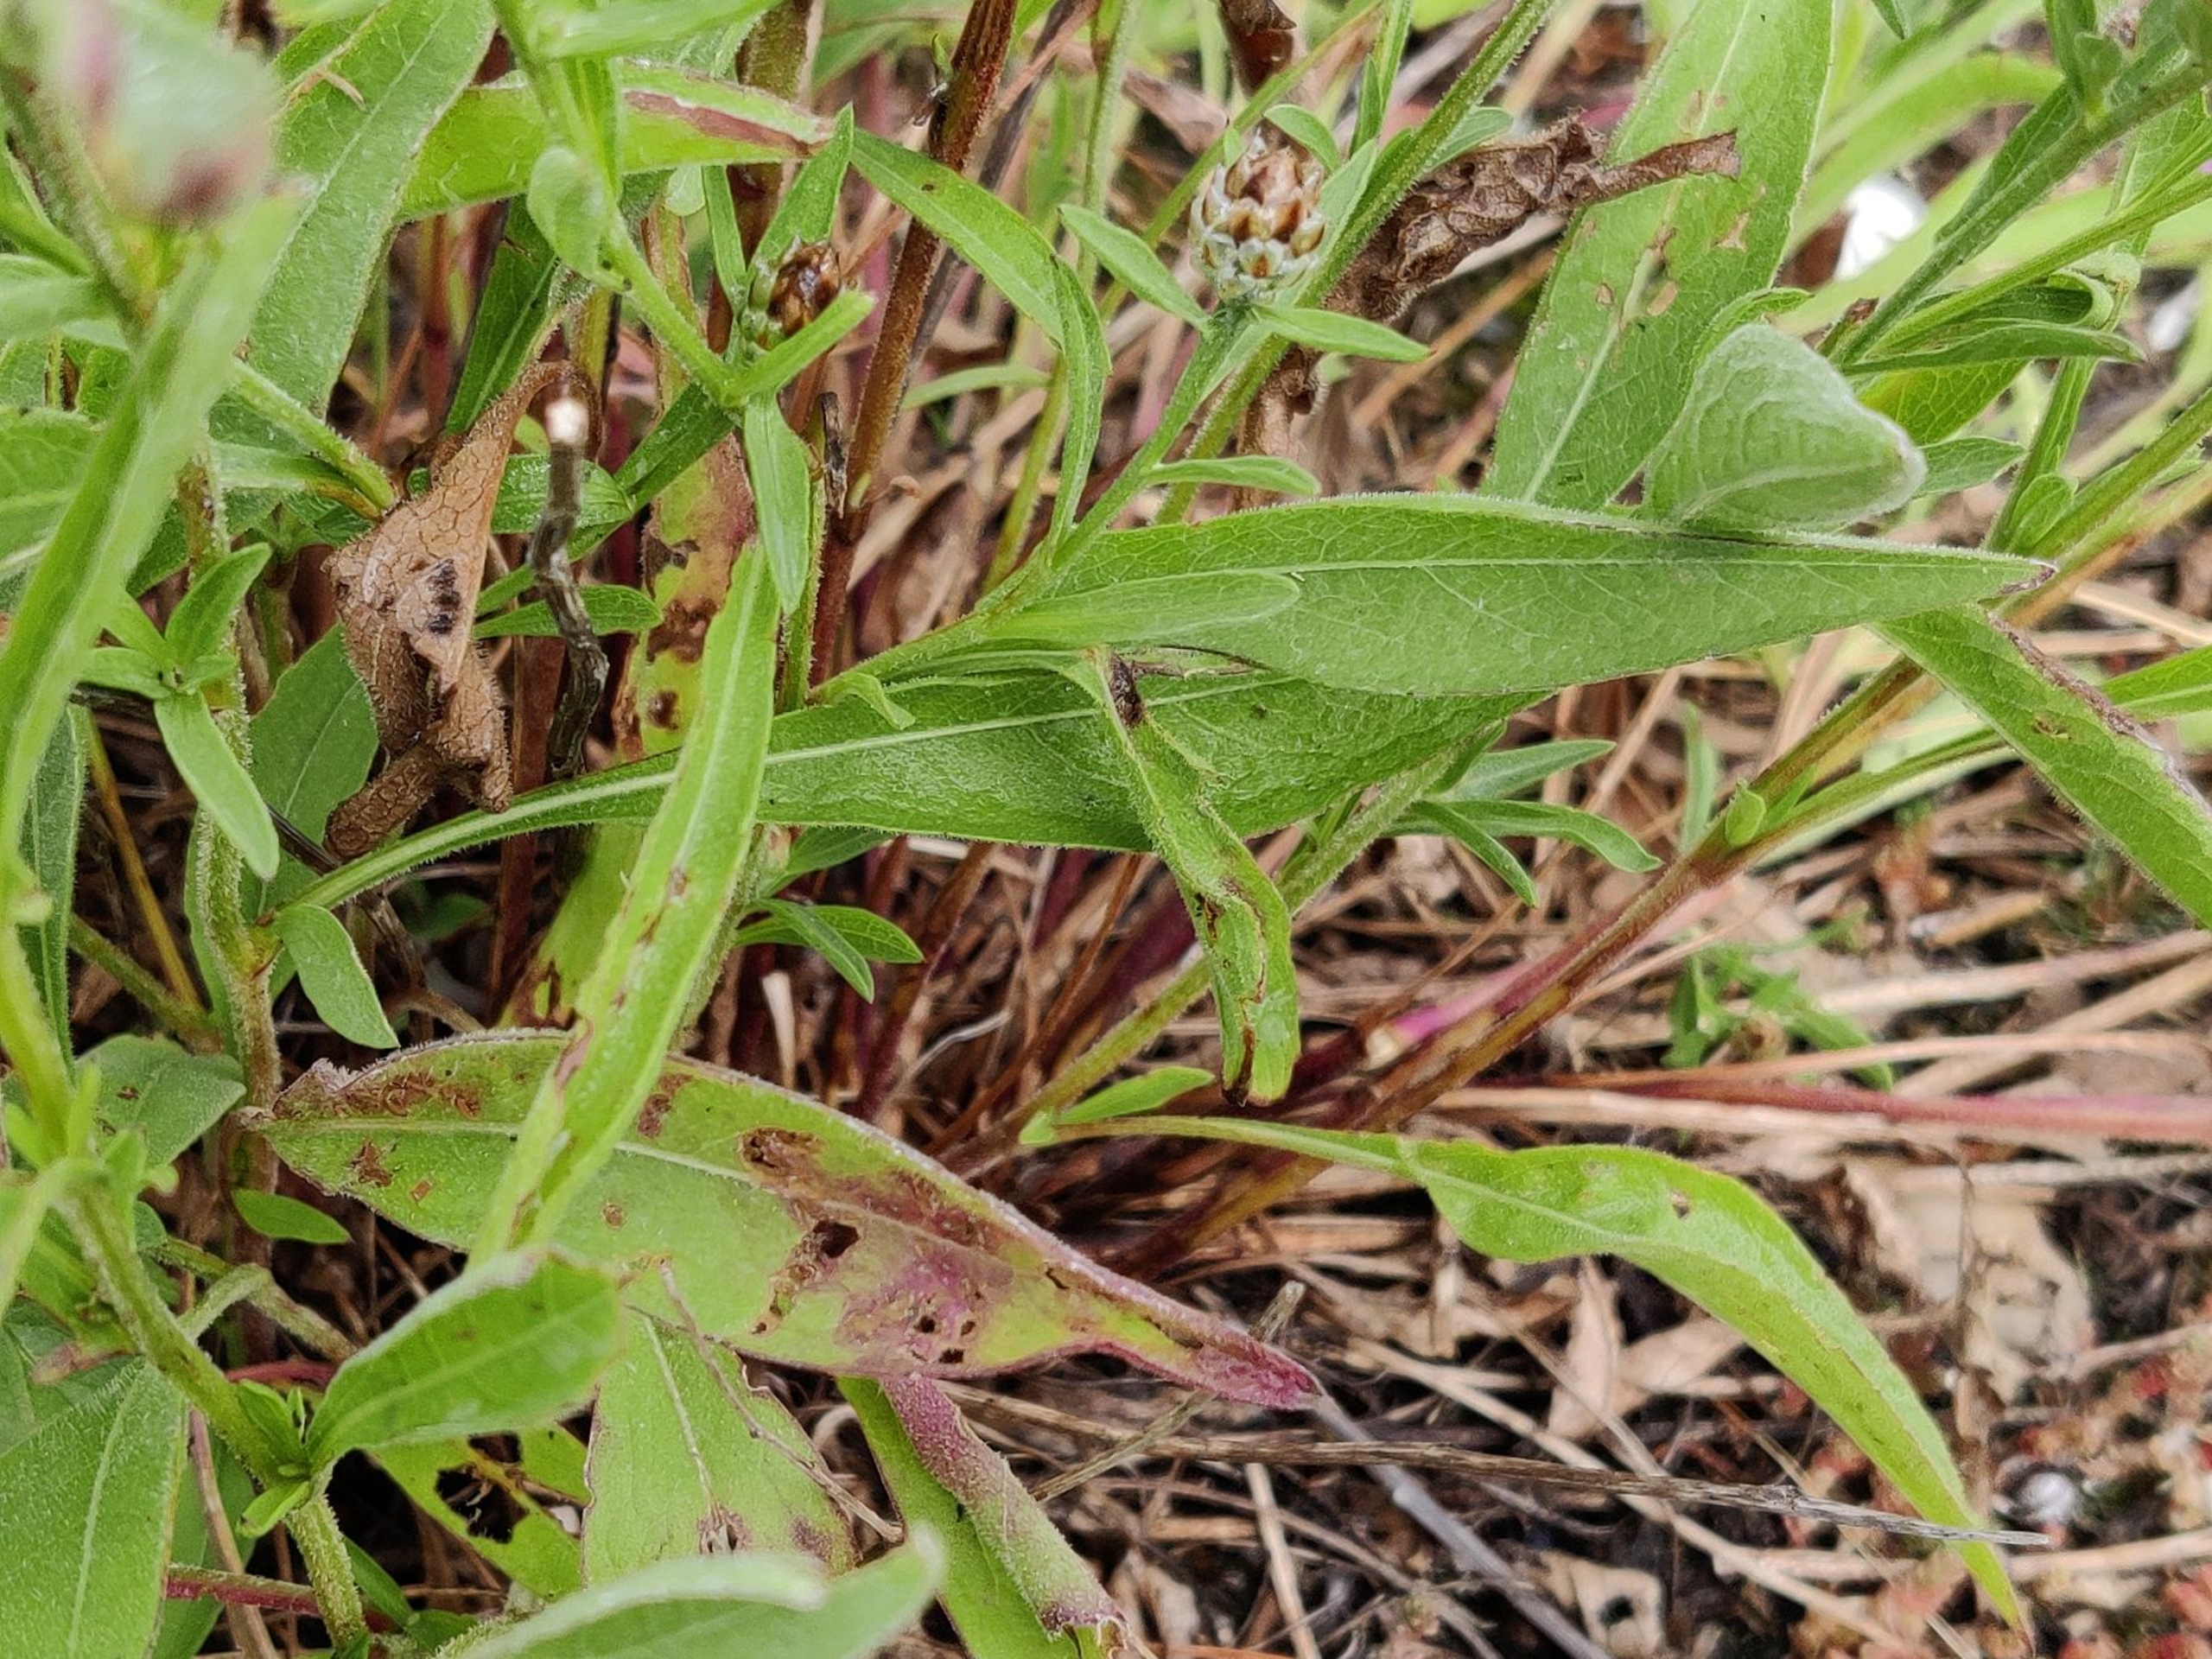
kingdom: Plantae
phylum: Tracheophyta
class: Magnoliopsida
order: Asterales
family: Asteraceae
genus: Centaurea
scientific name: Centaurea jacea
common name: Almindelig knopurt
